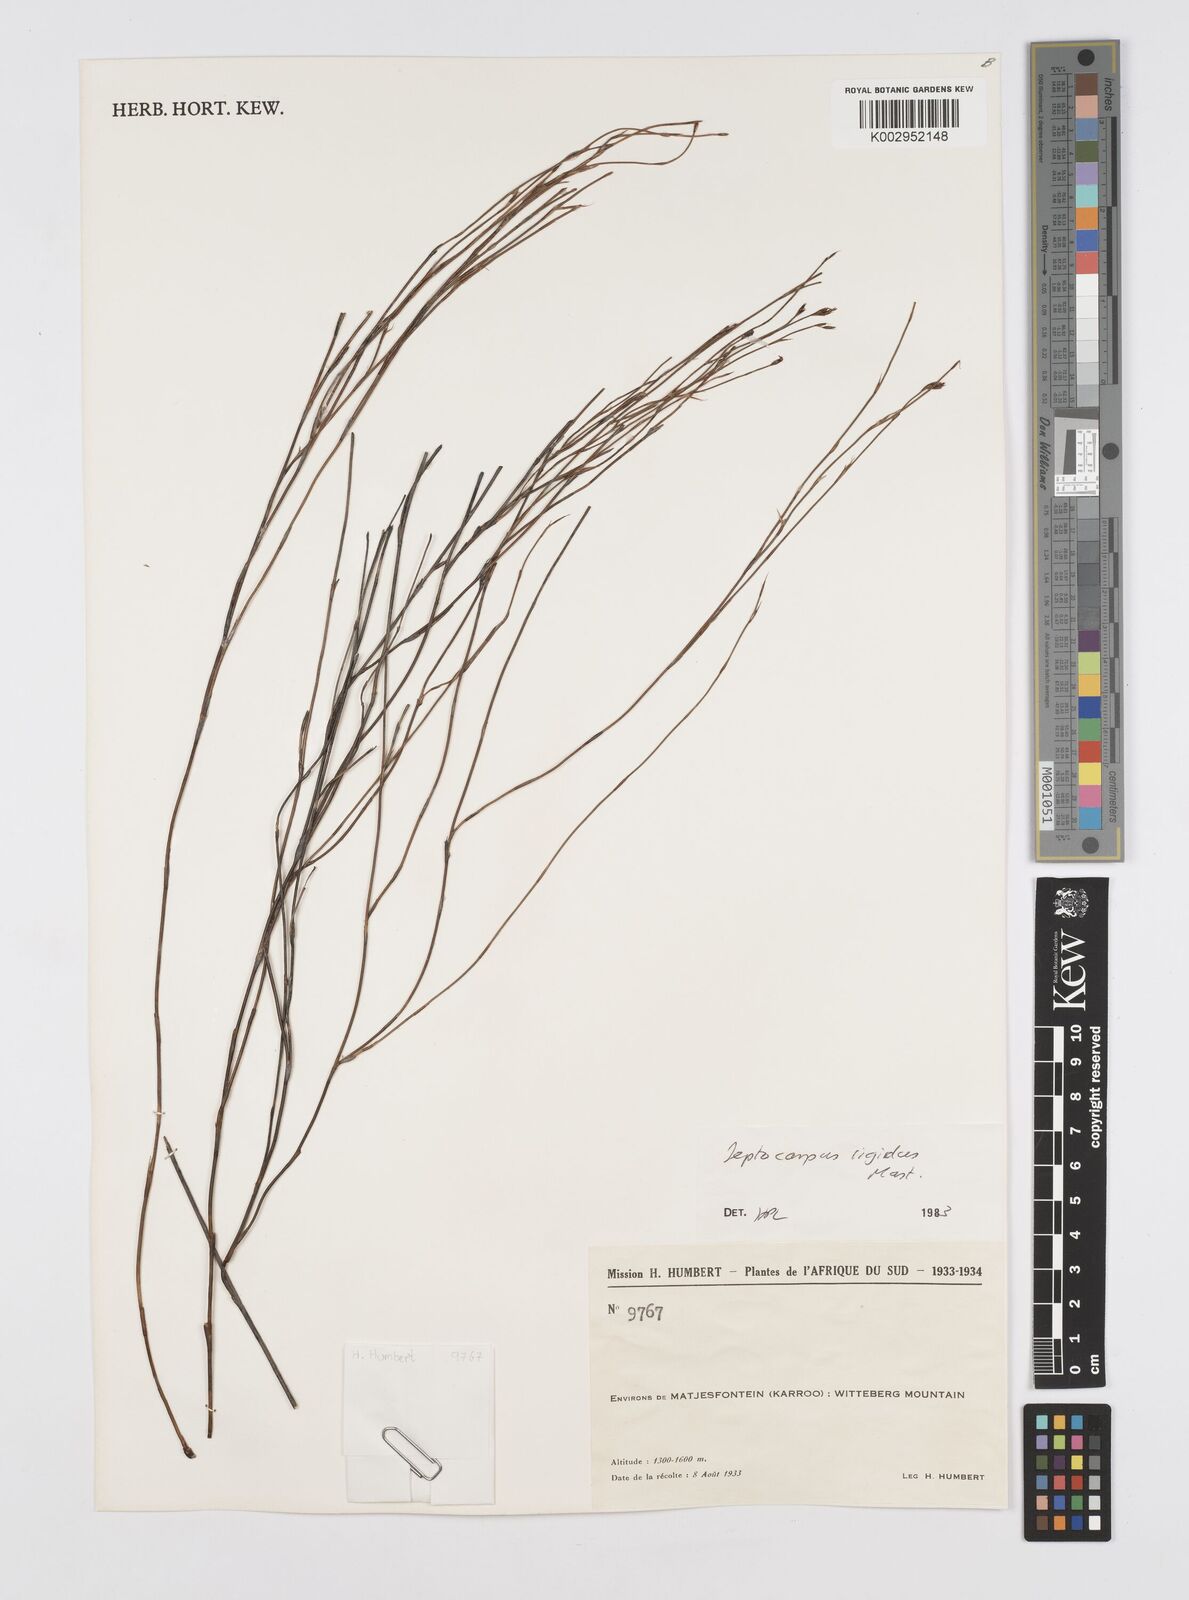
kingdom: Plantae
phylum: Tracheophyta
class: Liliopsida
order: Poales
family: Restionaceae
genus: Restio
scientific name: Restio rigidus
